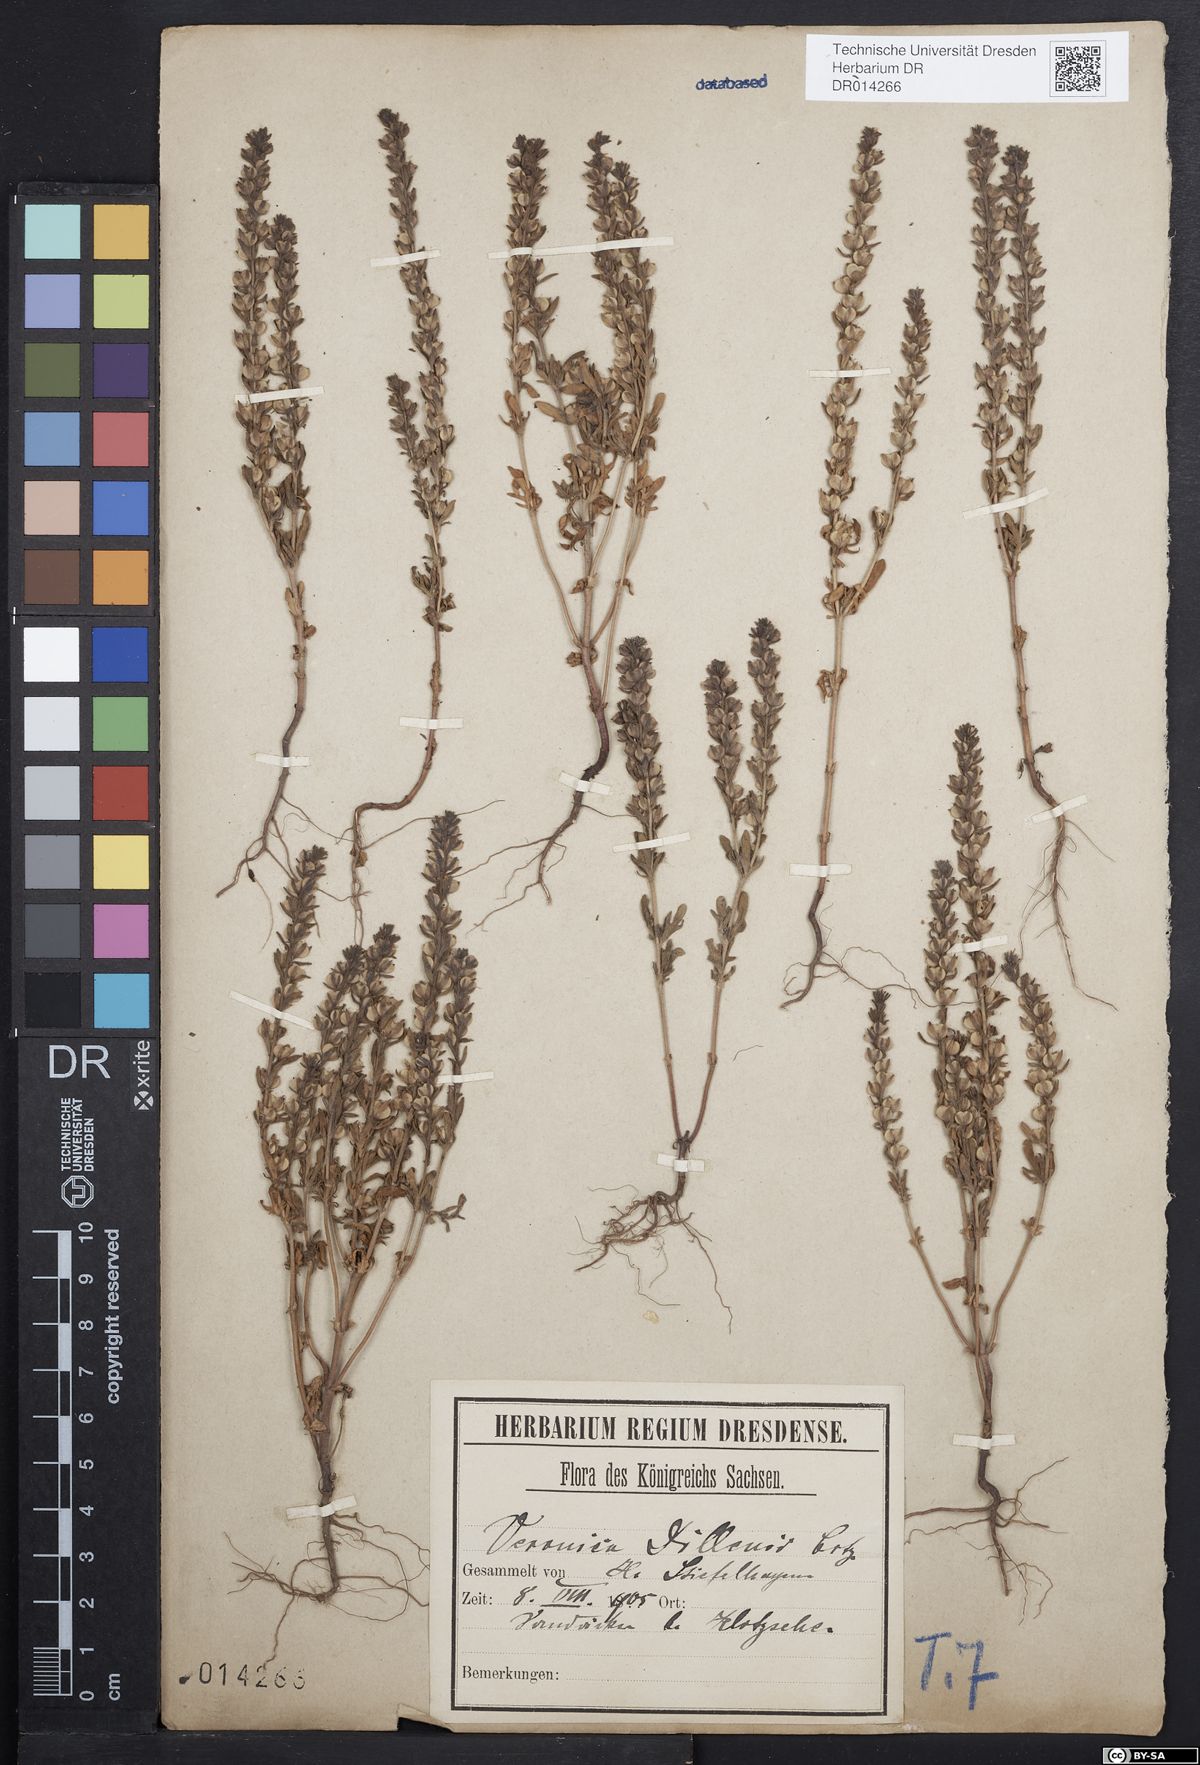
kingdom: Plantae
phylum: Tracheophyta
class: Magnoliopsida
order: Lamiales
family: Plantaginaceae
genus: Veronica
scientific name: Veronica dillenii
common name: Dillenius' speedwell
